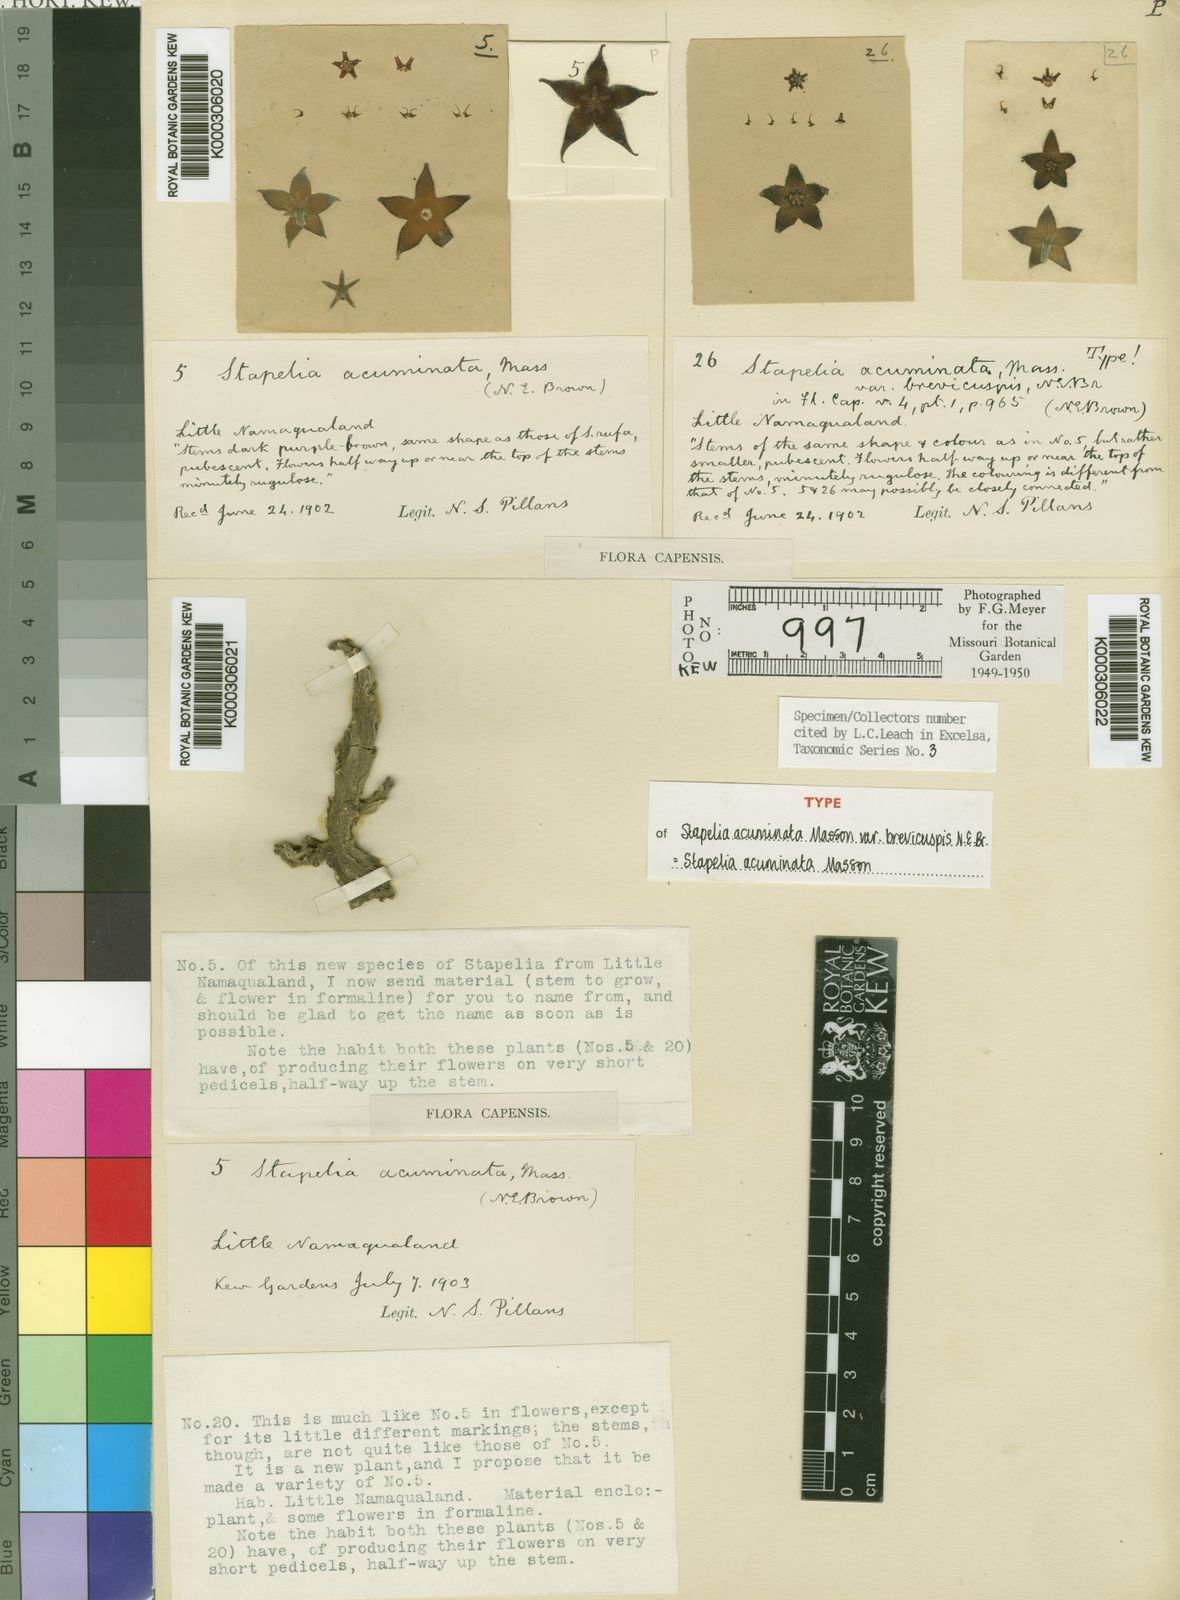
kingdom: Plantae
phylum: Tracheophyta
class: Magnoliopsida
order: Gentianales
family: Apocynaceae
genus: Ceropegia
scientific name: Ceropegia indocta
